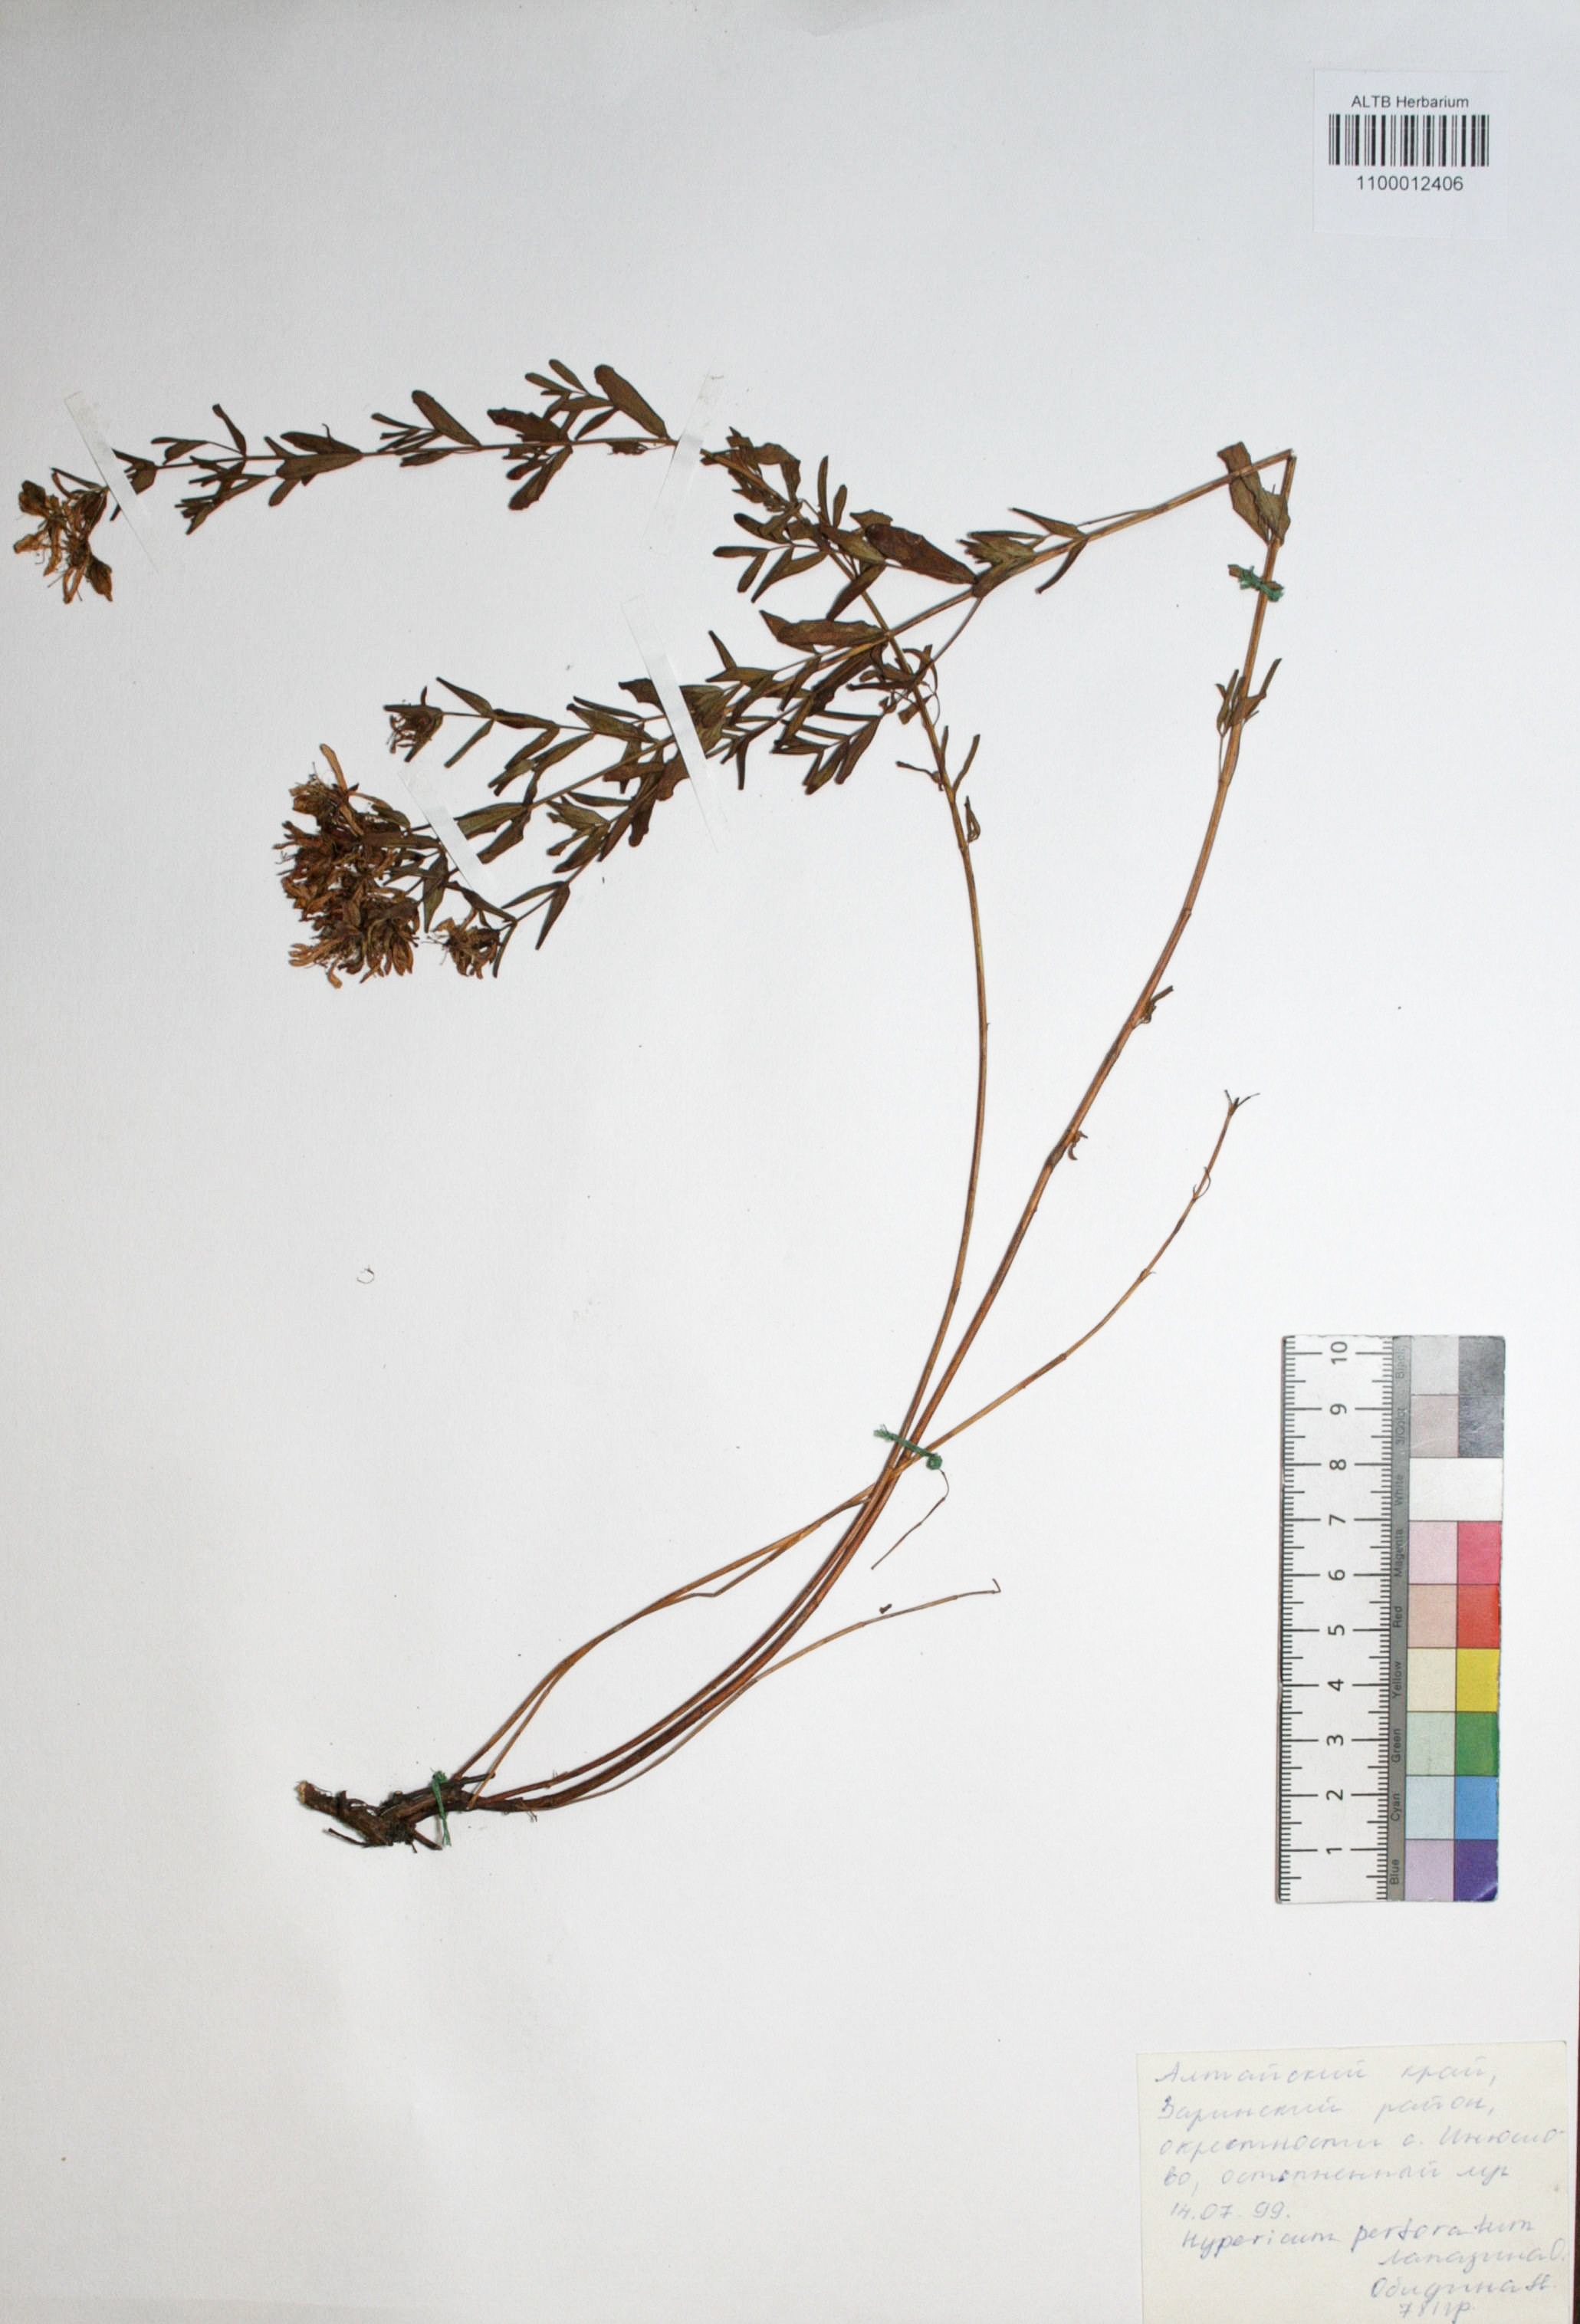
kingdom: Plantae
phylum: Tracheophyta
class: Magnoliopsida
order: Malpighiales
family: Hypericaceae
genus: Hypericum
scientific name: Hypericum perforatum
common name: Common st. johnswort
